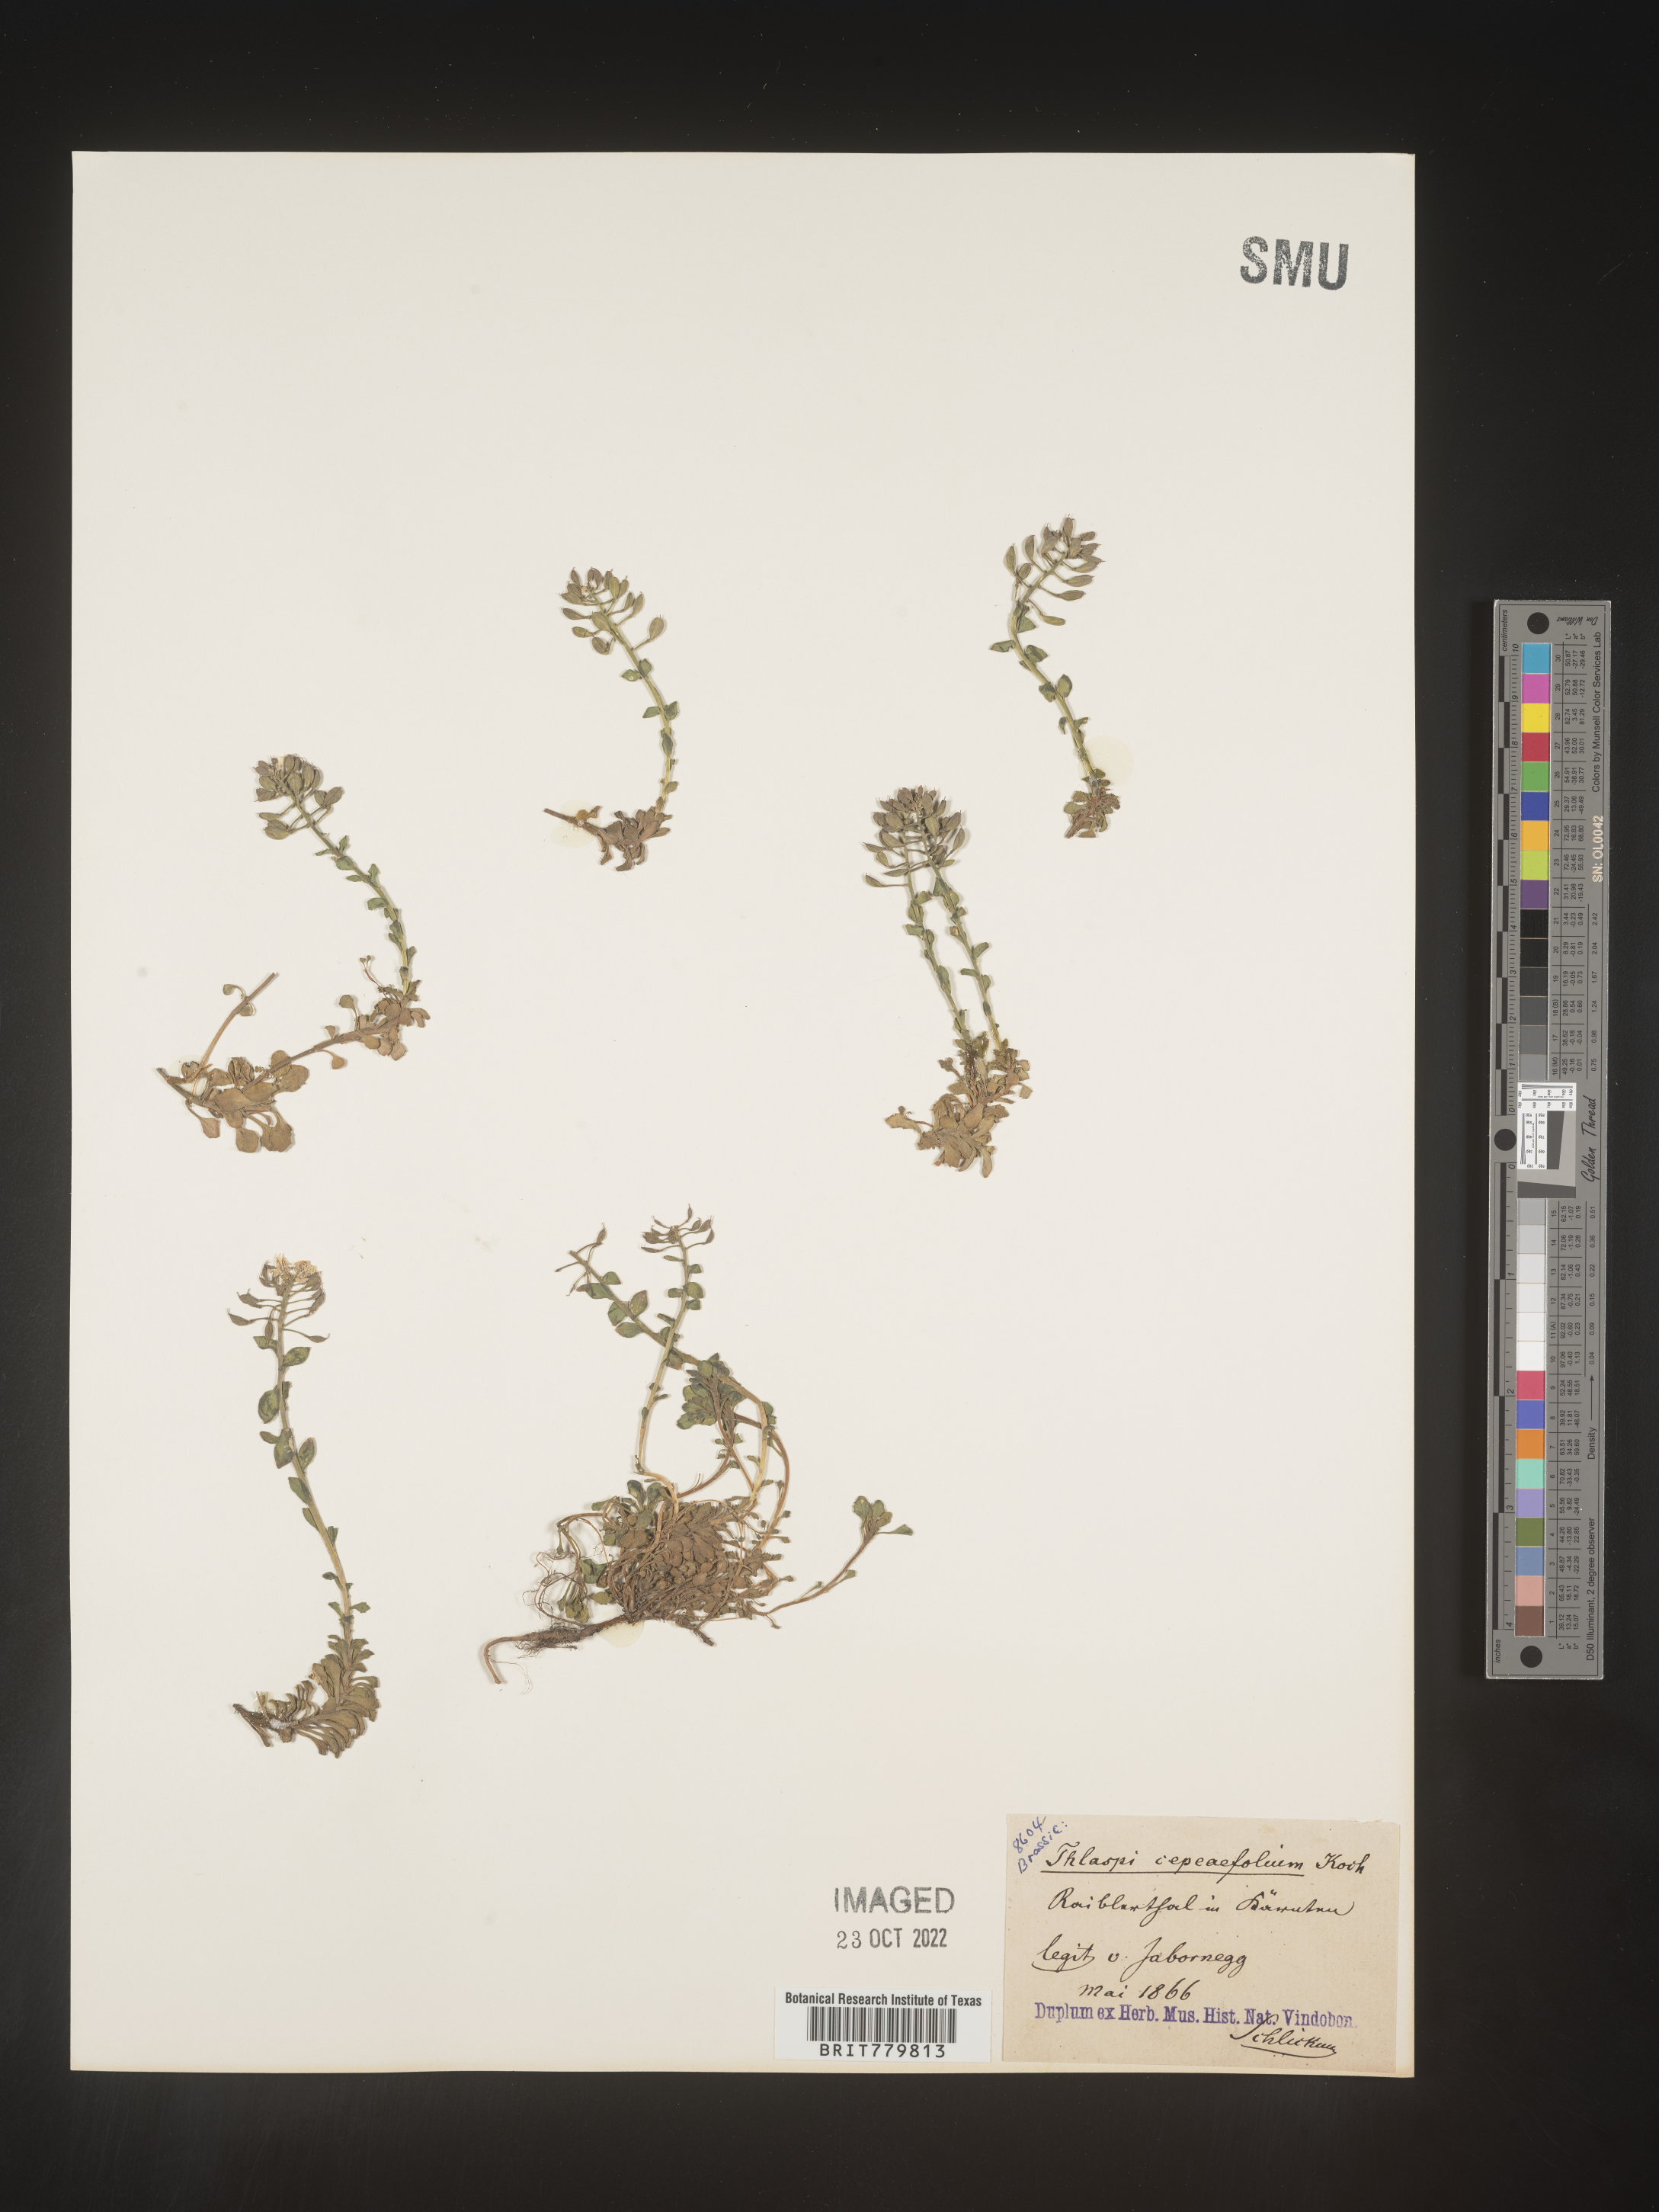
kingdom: Plantae
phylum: Tracheophyta
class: Magnoliopsida
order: Brassicales
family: Brassicaceae
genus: Thlaspi
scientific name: Thlaspi
